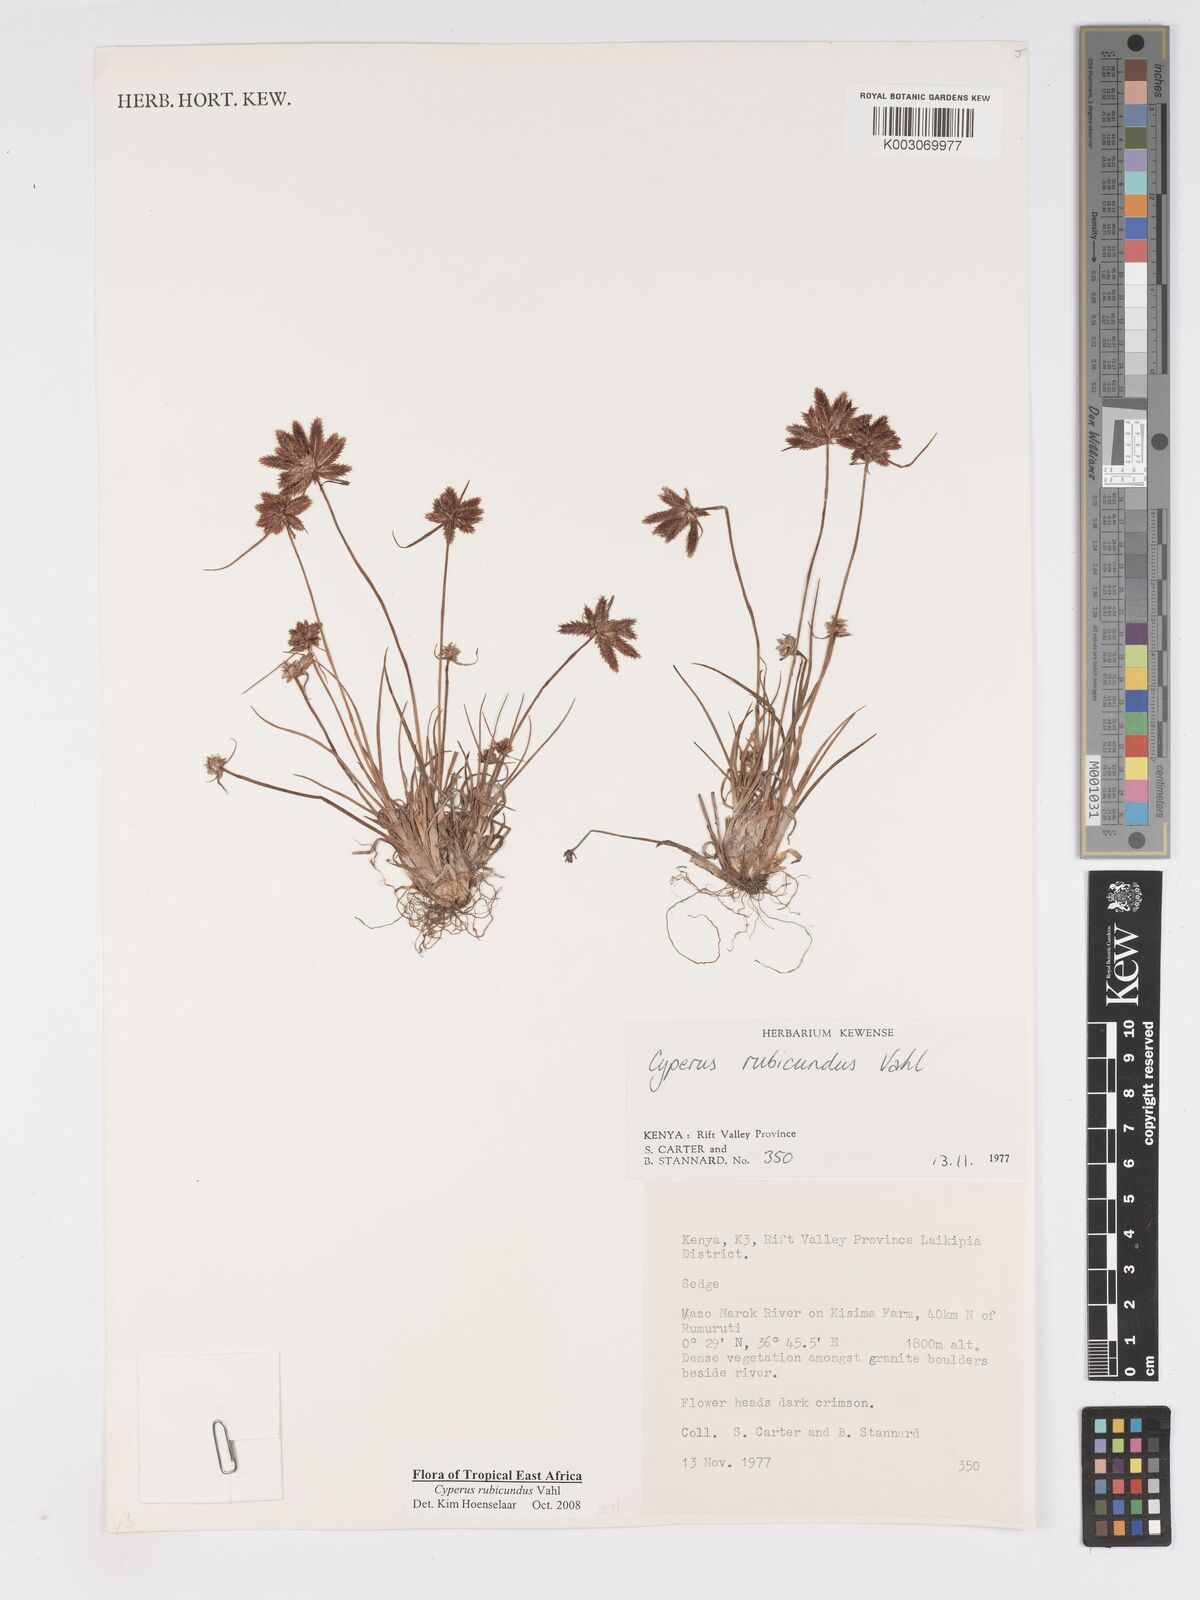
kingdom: Plantae
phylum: Tracheophyta
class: Liliopsida
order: Poales
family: Cyperaceae
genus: Cyperus
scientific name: Cyperus rubicundus
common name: Coco-grass
